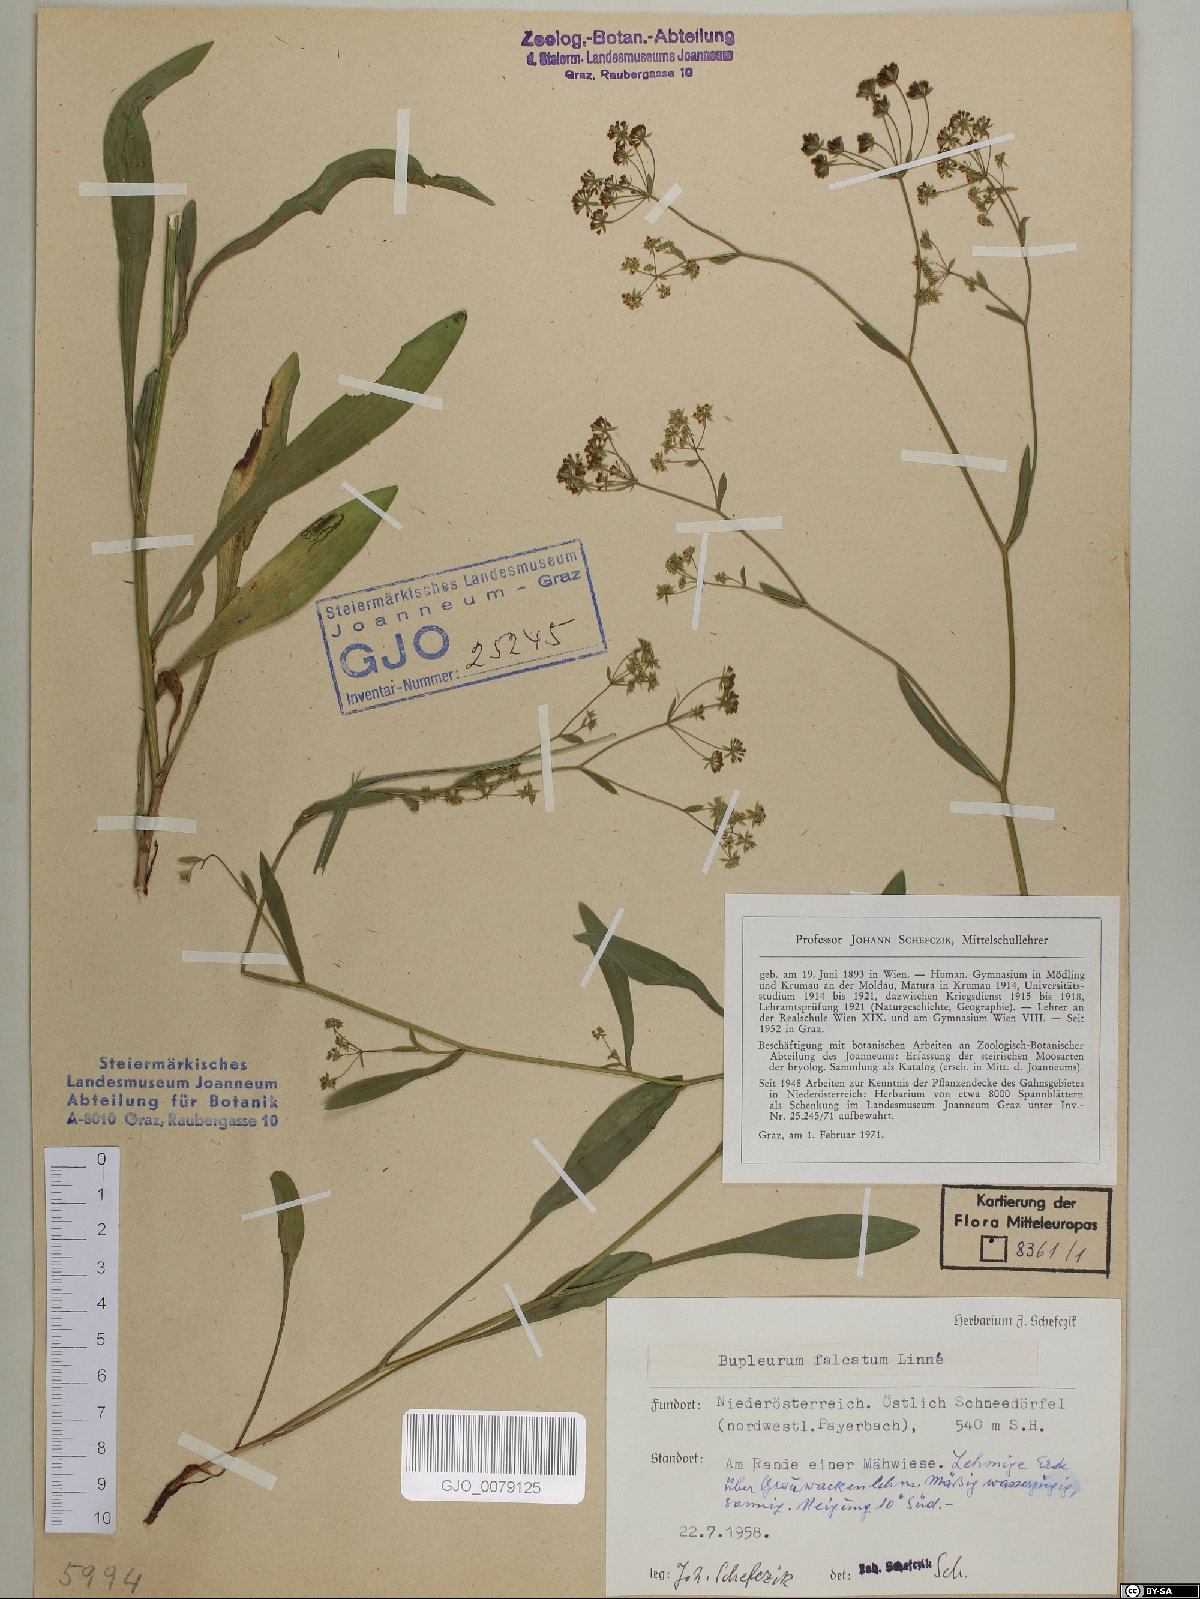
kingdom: Plantae
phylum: Tracheophyta
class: Magnoliopsida
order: Apiales
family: Apiaceae
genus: Bupleurum
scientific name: Bupleurum falcatum
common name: Sickle-leaved hare's-ear
